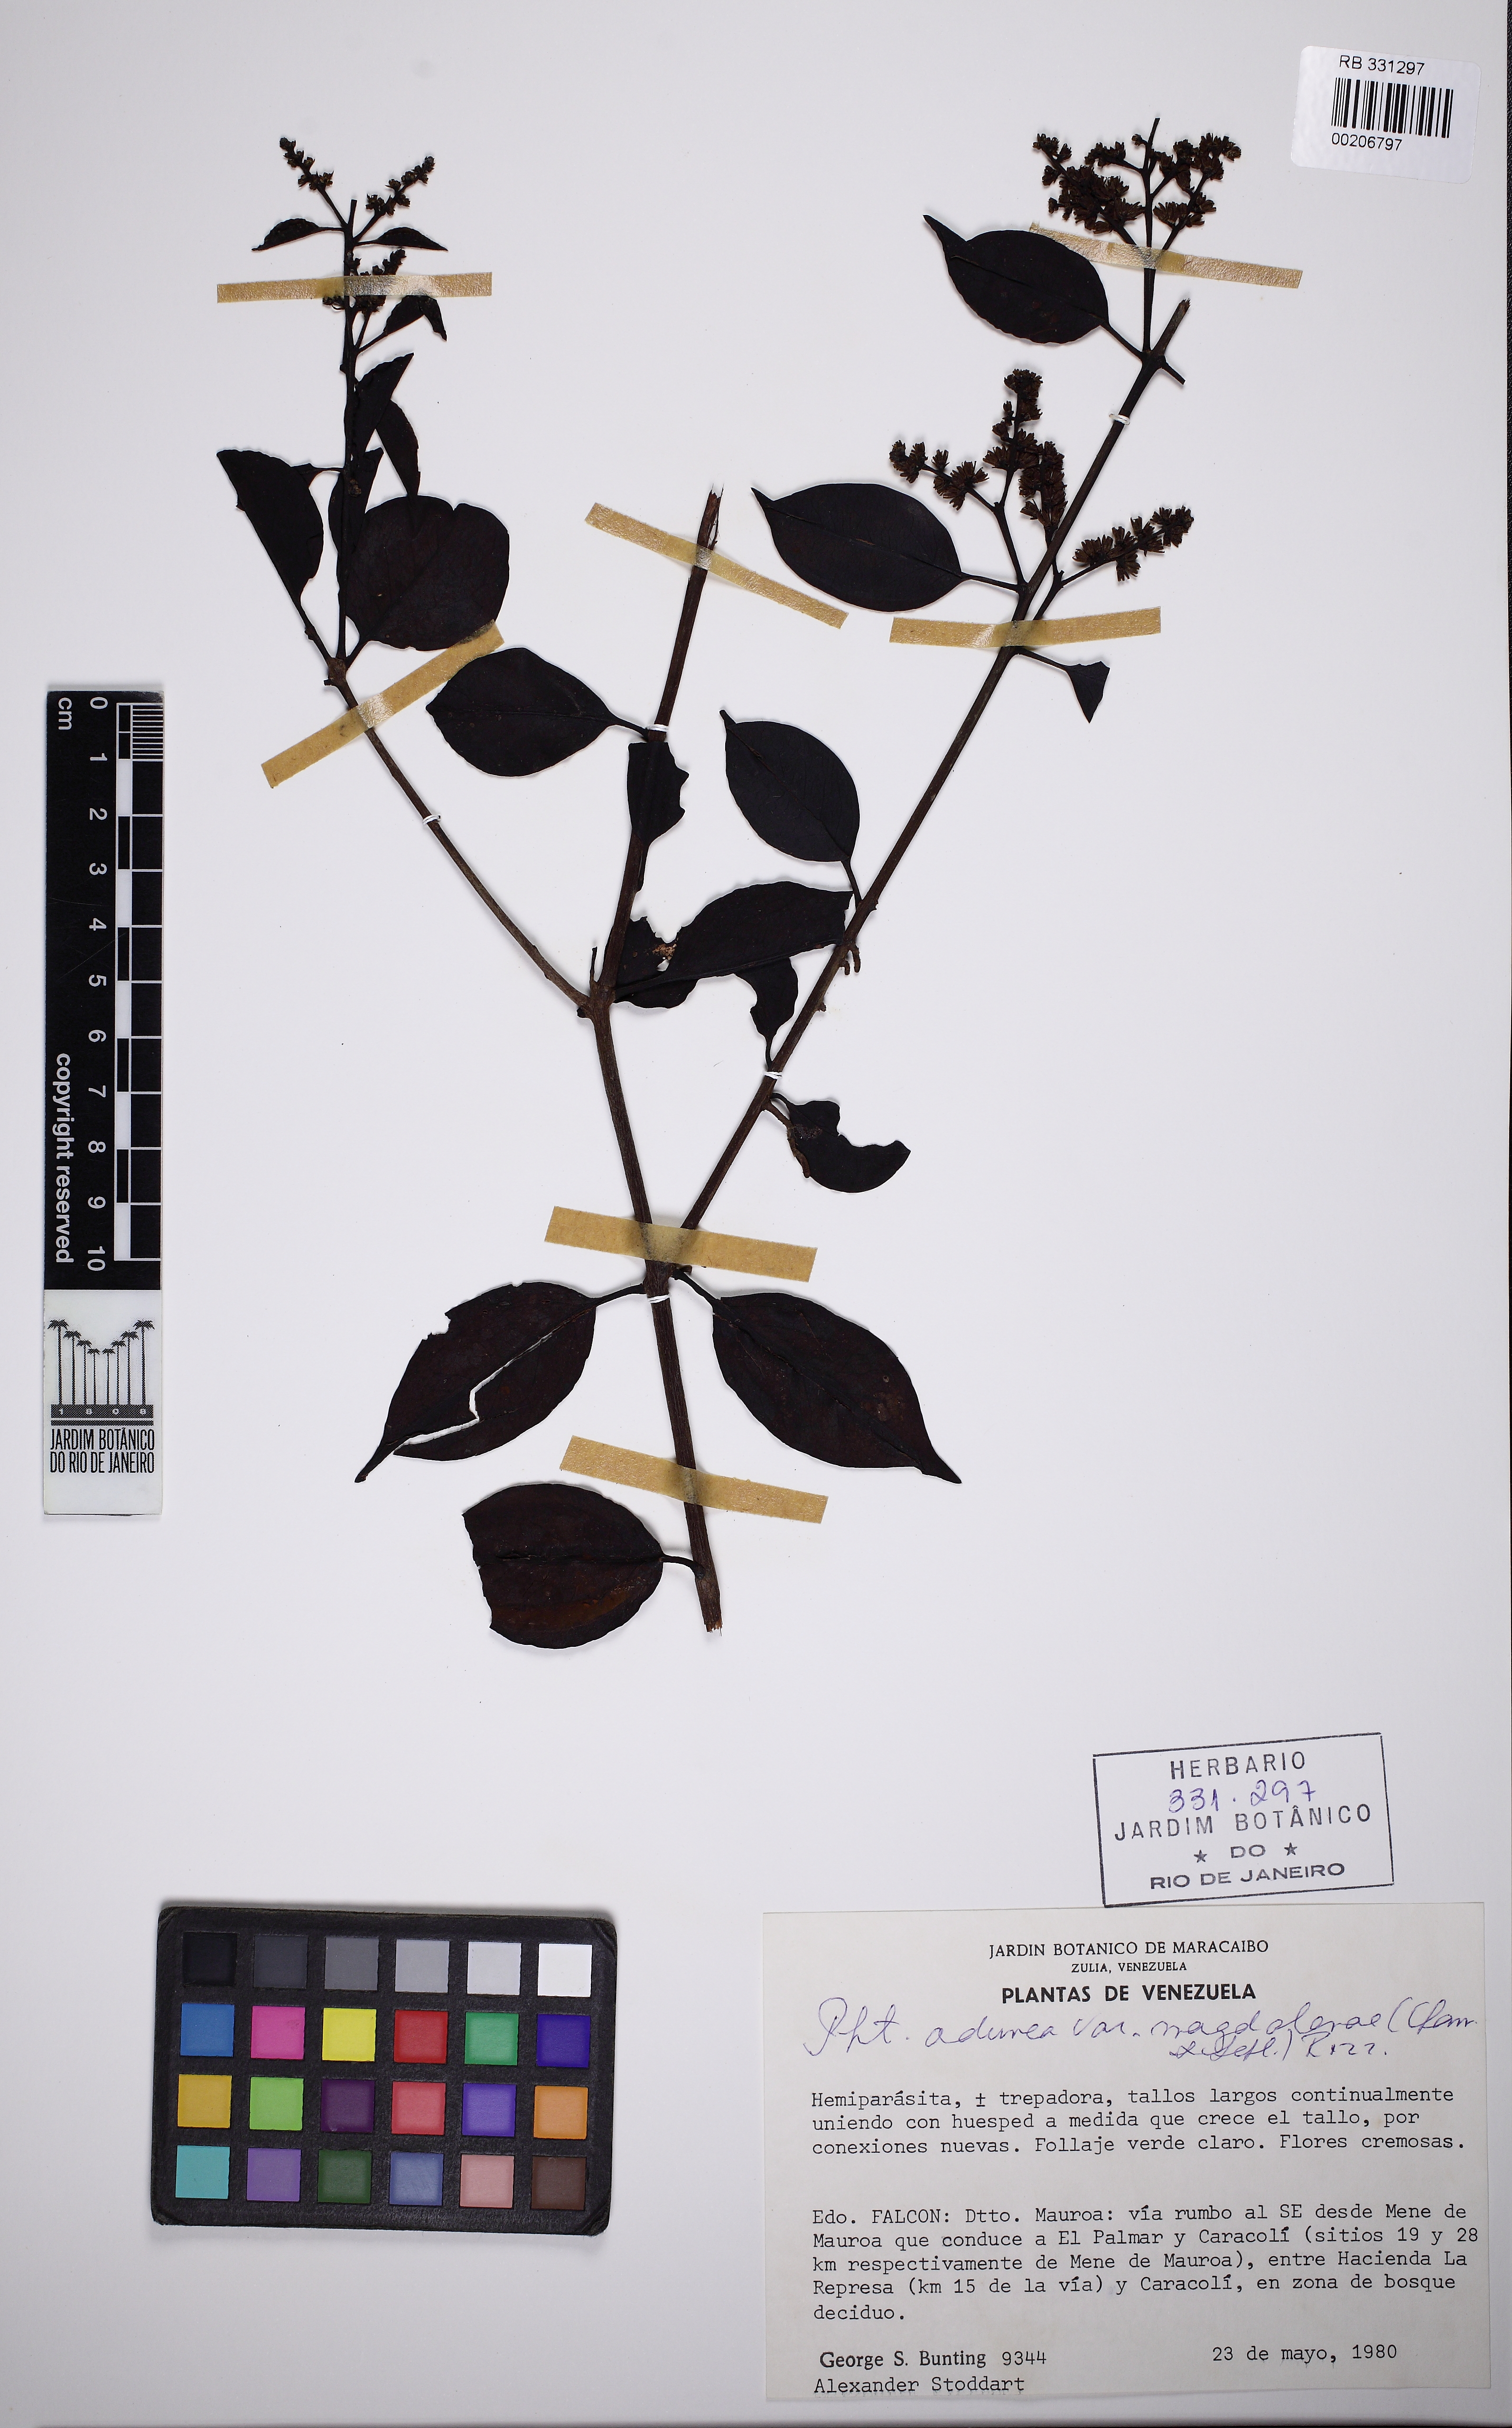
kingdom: Plantae
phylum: Tracheophyta
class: Magnoliopsida
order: Santalales
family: Loranthaceae
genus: Passovia
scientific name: Passovia pedunculata
